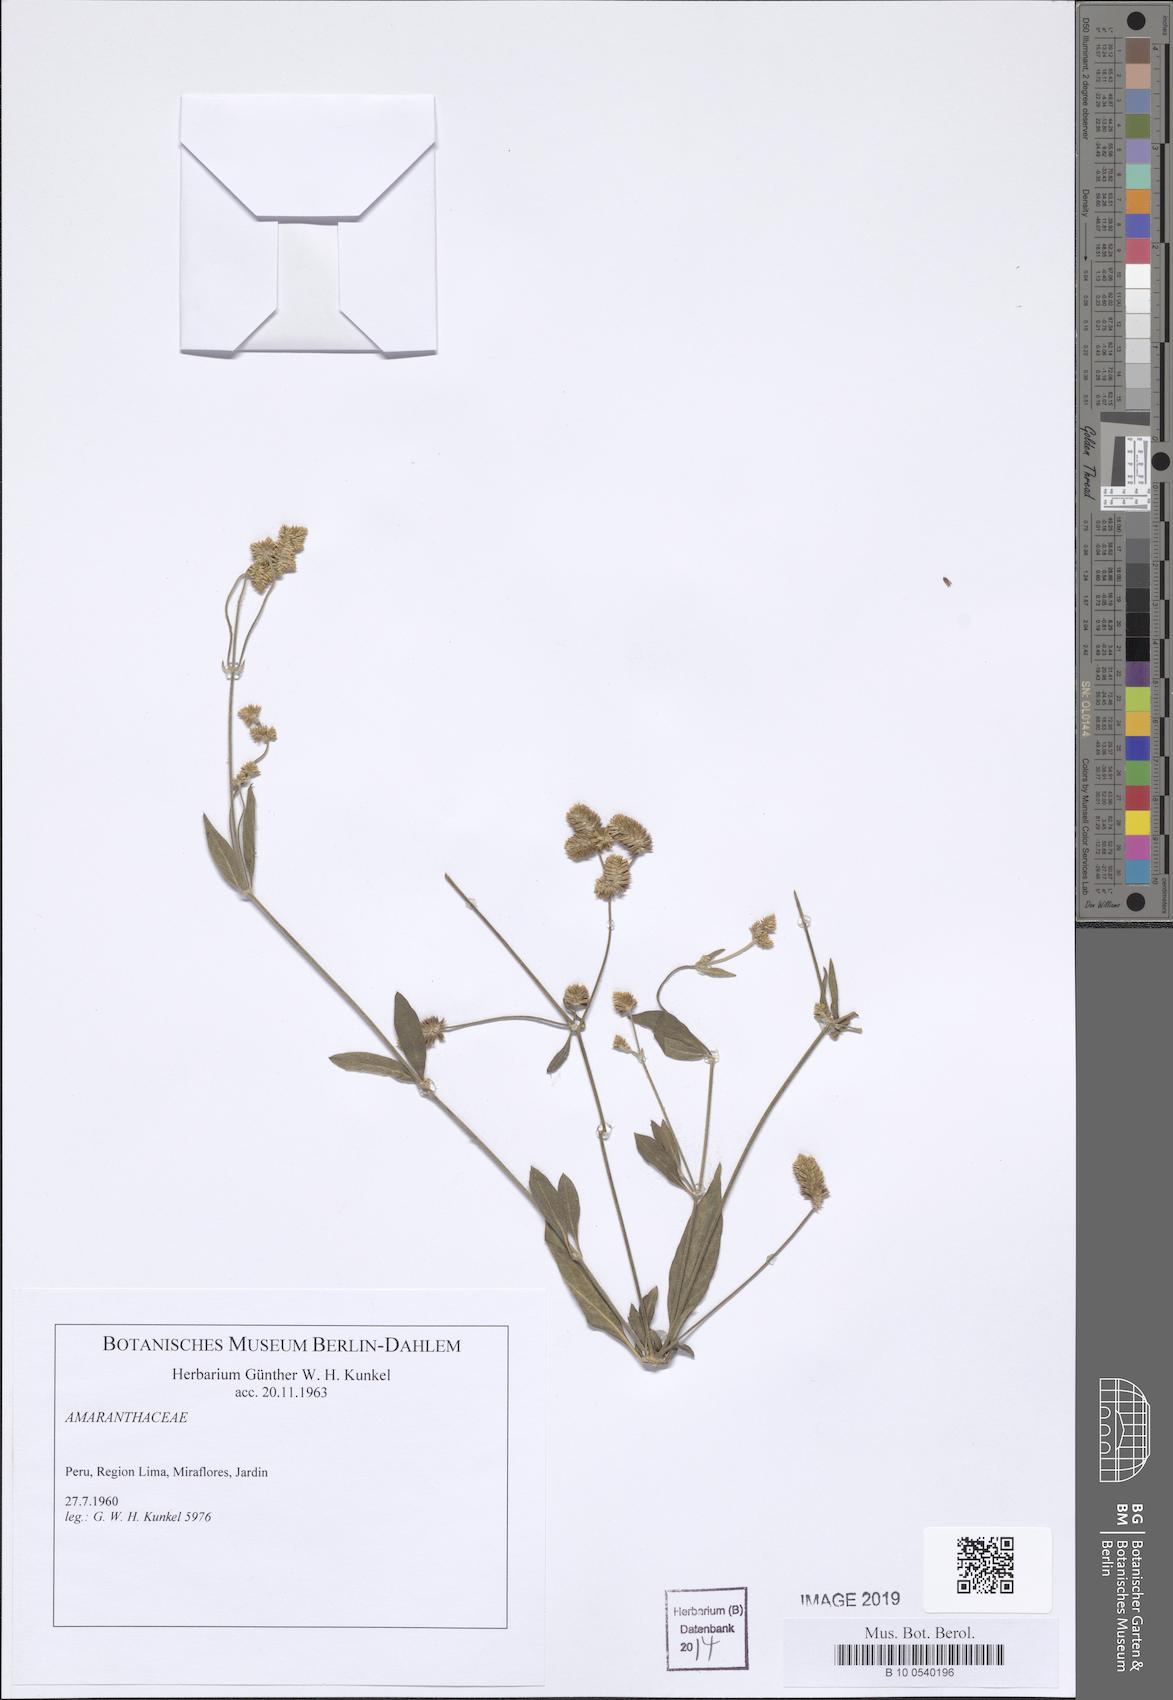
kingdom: Plantae
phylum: Tracheophyta
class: Magnoliopsida
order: Caryophyllales
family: Amaranthaceae
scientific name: Amaranthaceae
